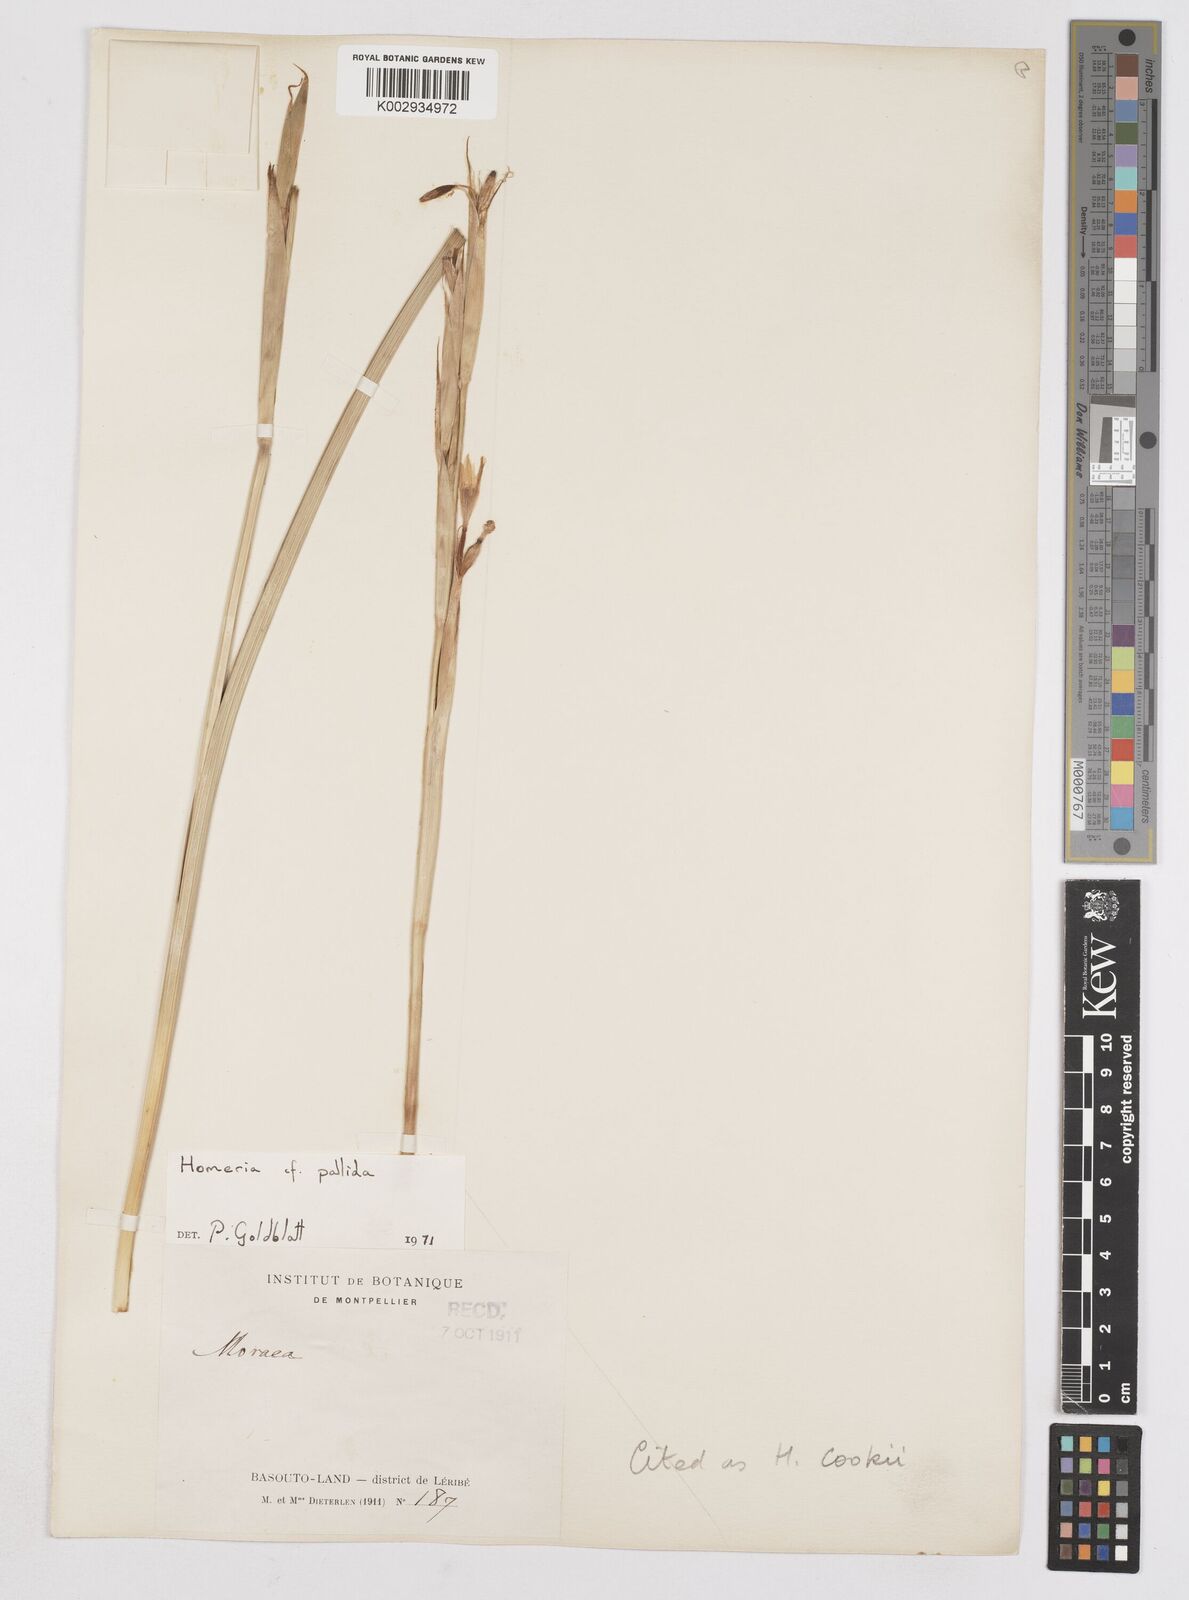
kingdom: Plantae
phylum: Tracheophyta
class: Liliopsida
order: Asparagales
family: Iridaceae
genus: Moraea
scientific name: Moraea cookii
